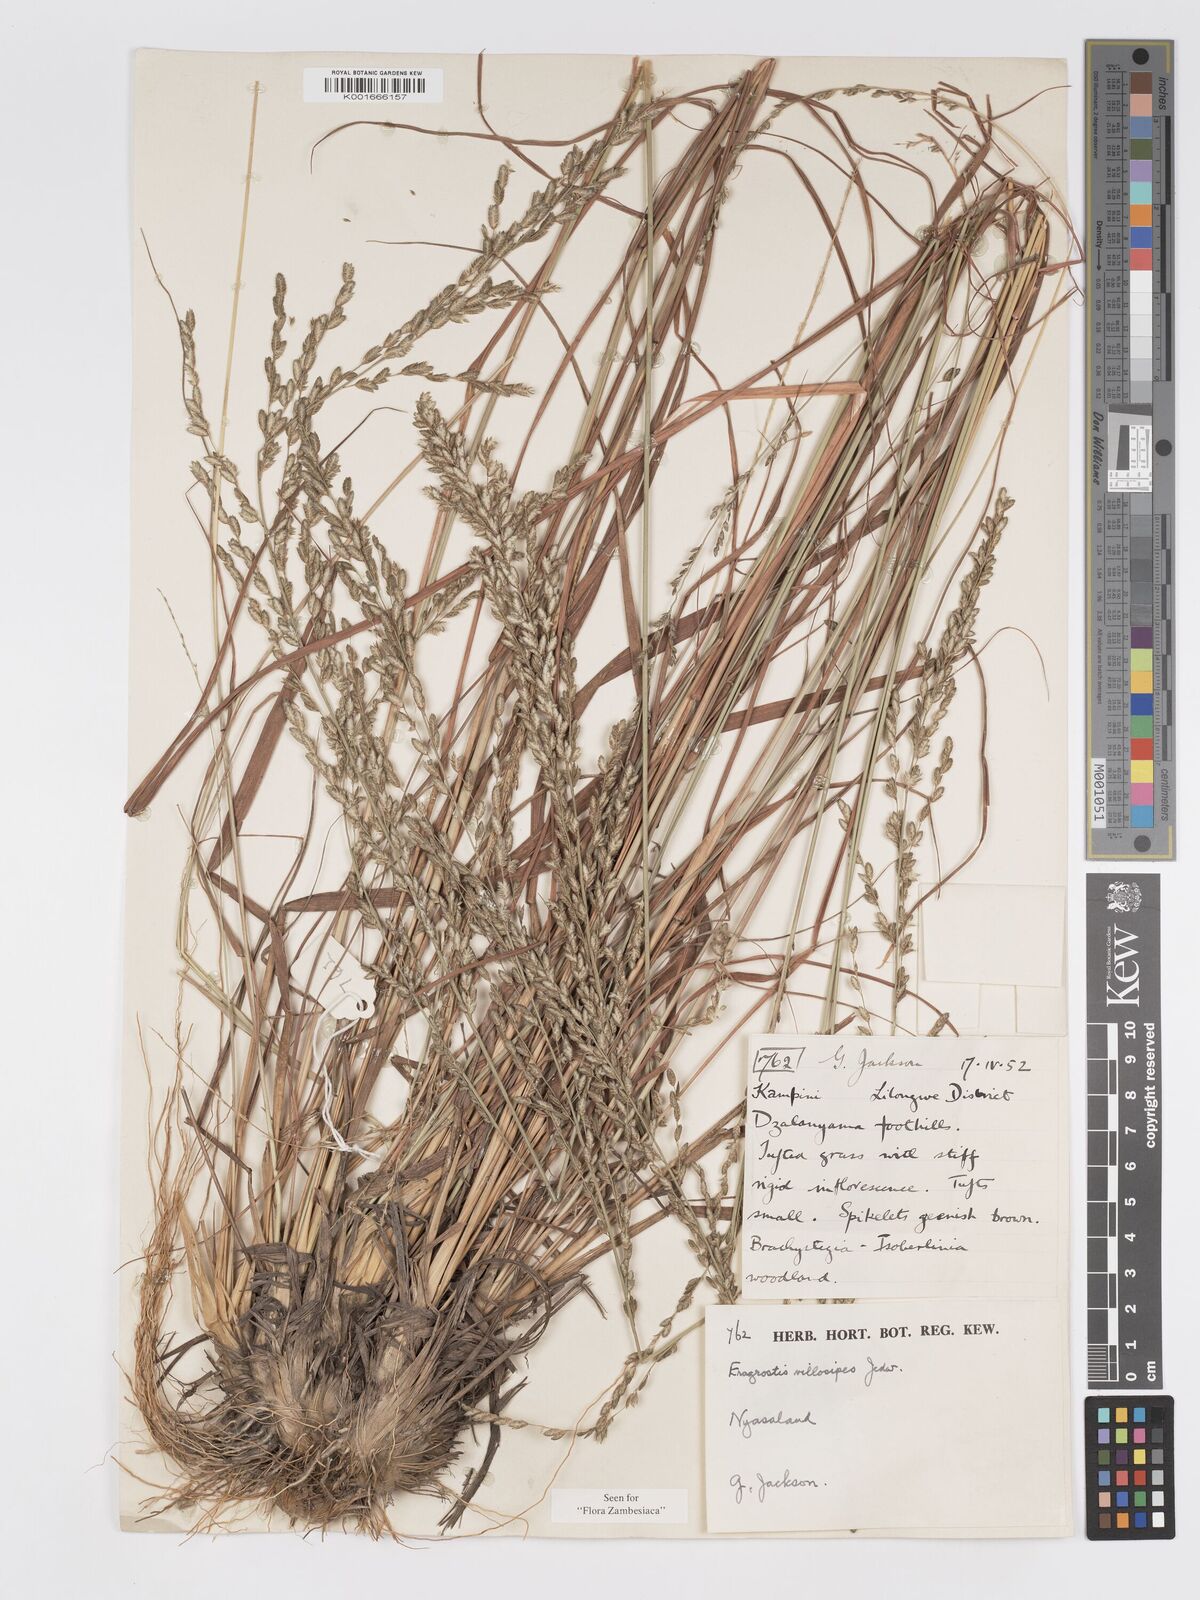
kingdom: Plantae
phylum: Tracheophyta
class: Liliopsida
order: Poales
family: Poaceae
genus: Eragrostis
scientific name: Eragrostis sclerantha
